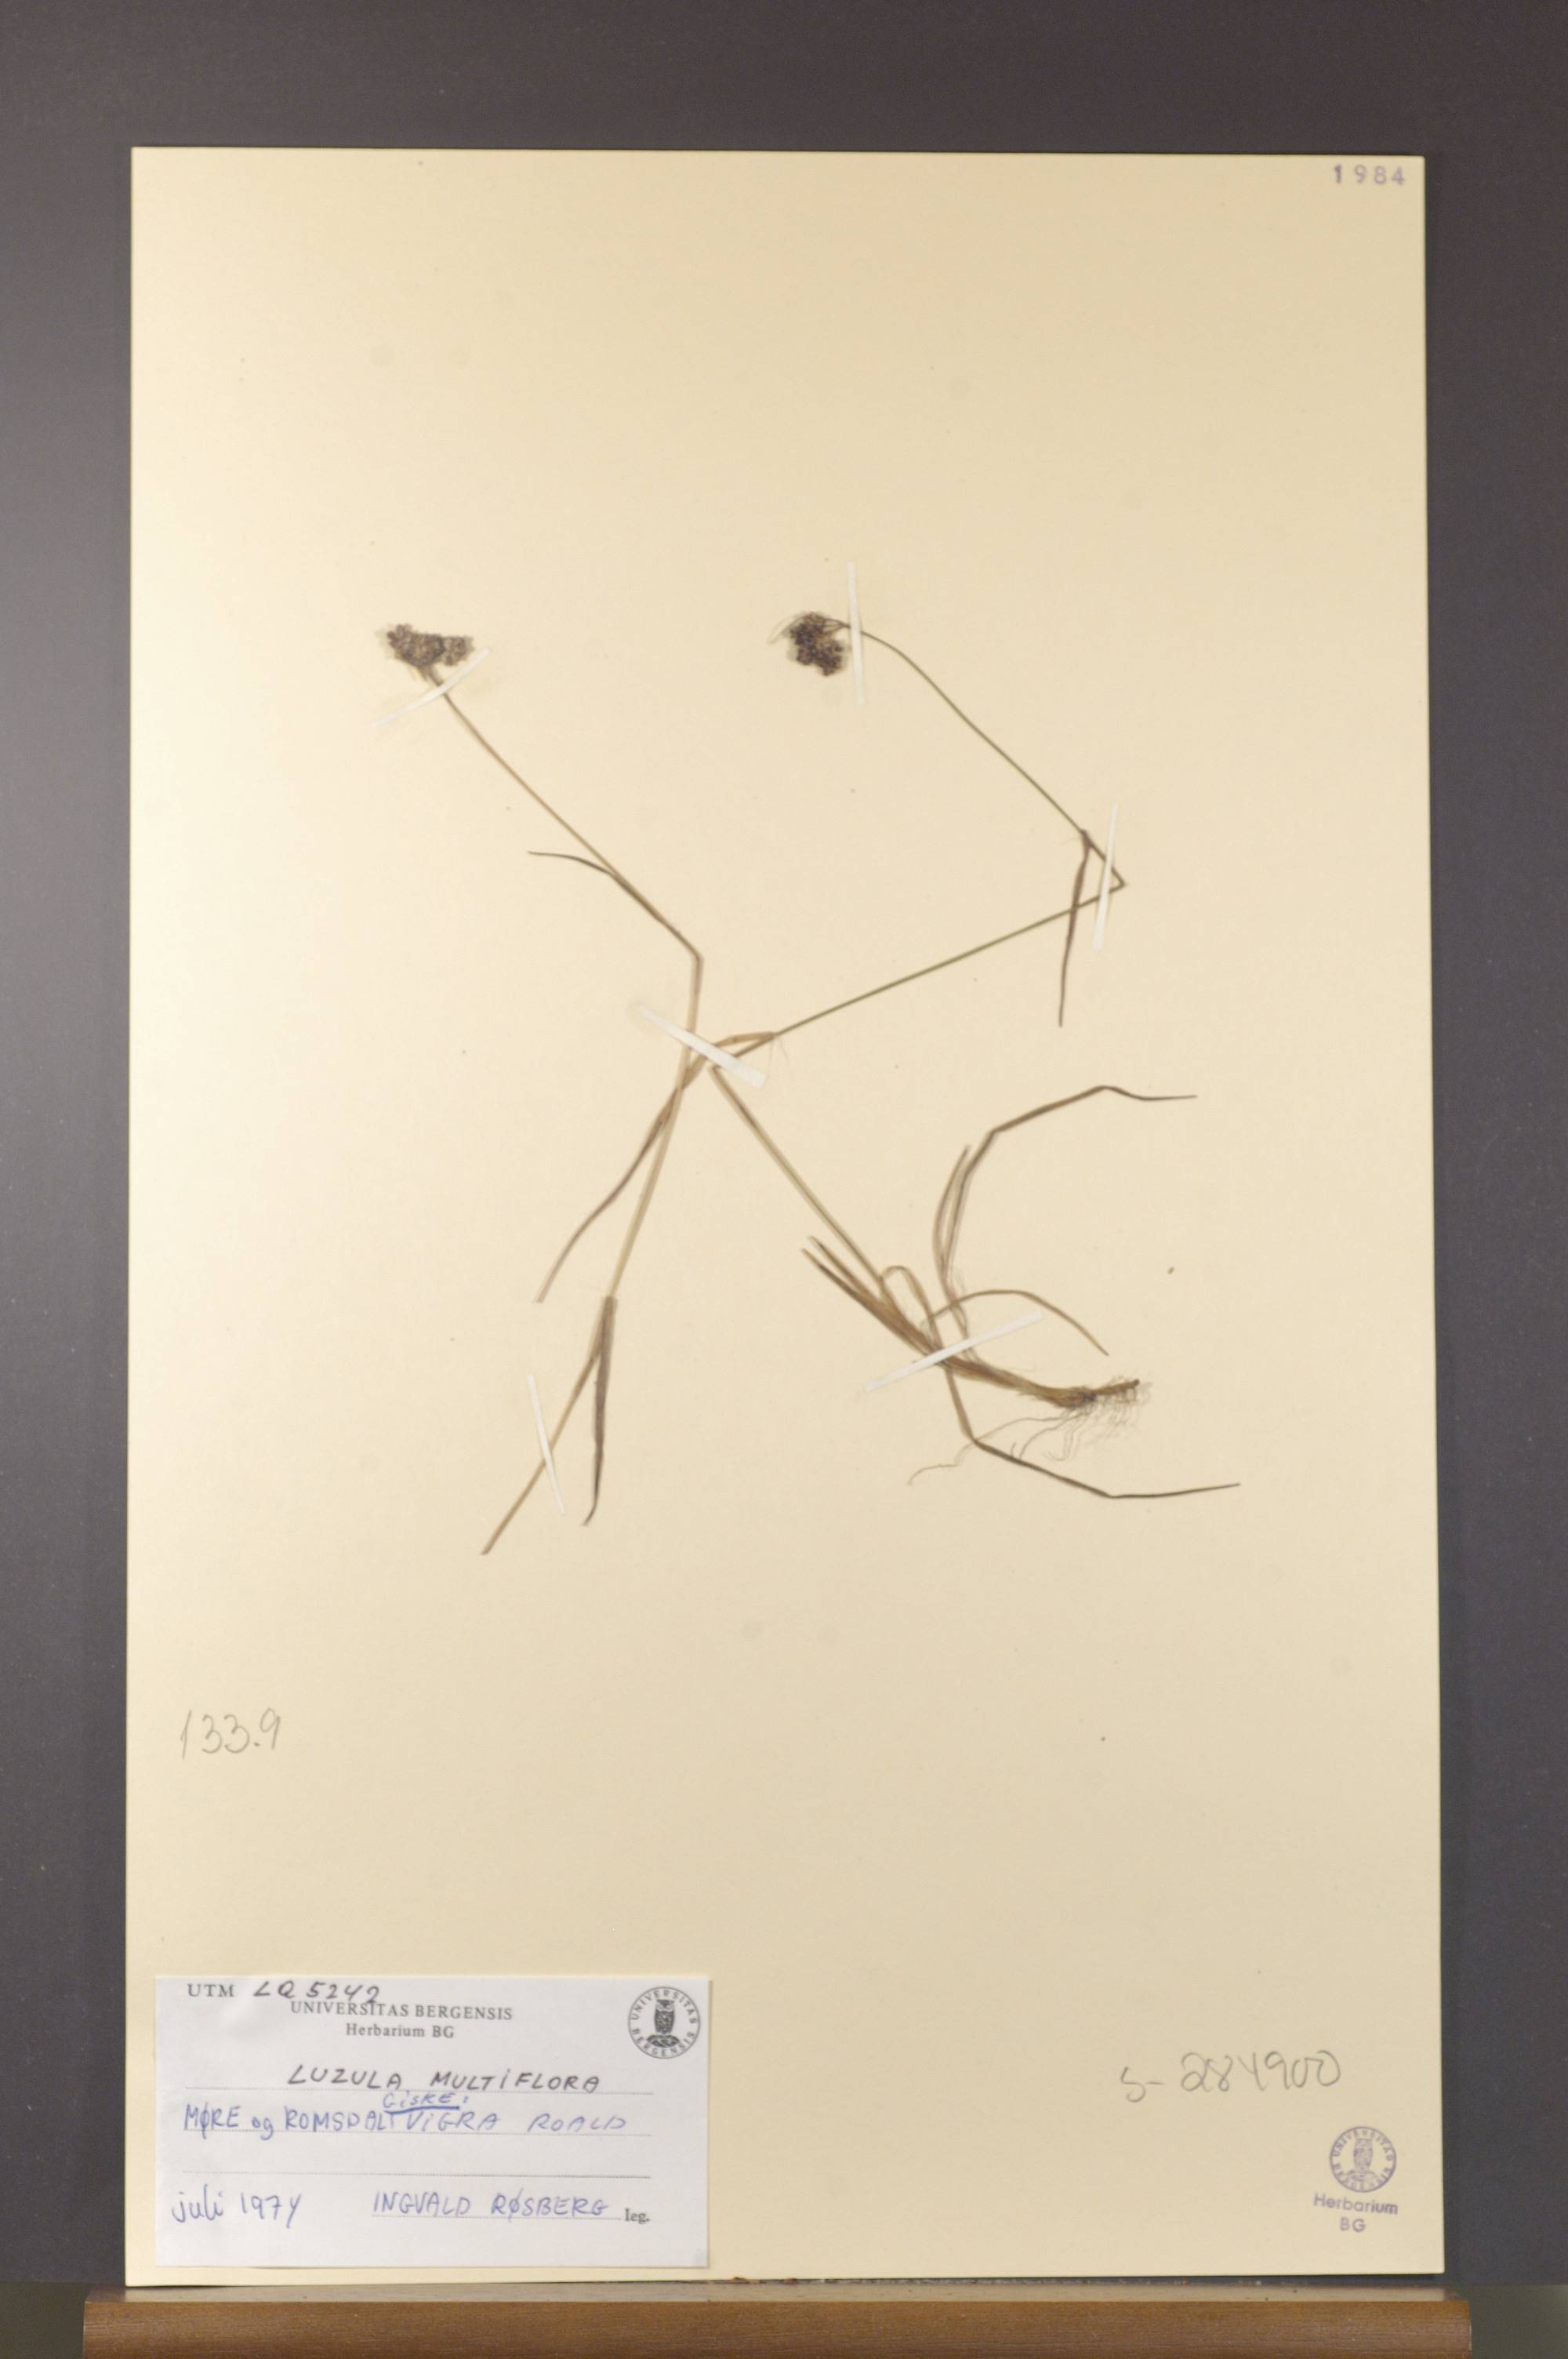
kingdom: Plantae
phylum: Tracheophyta
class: Liliopsida
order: Poales
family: Juncaceae
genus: Luzula
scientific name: Luzula multiflora
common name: Heath wood-rush
